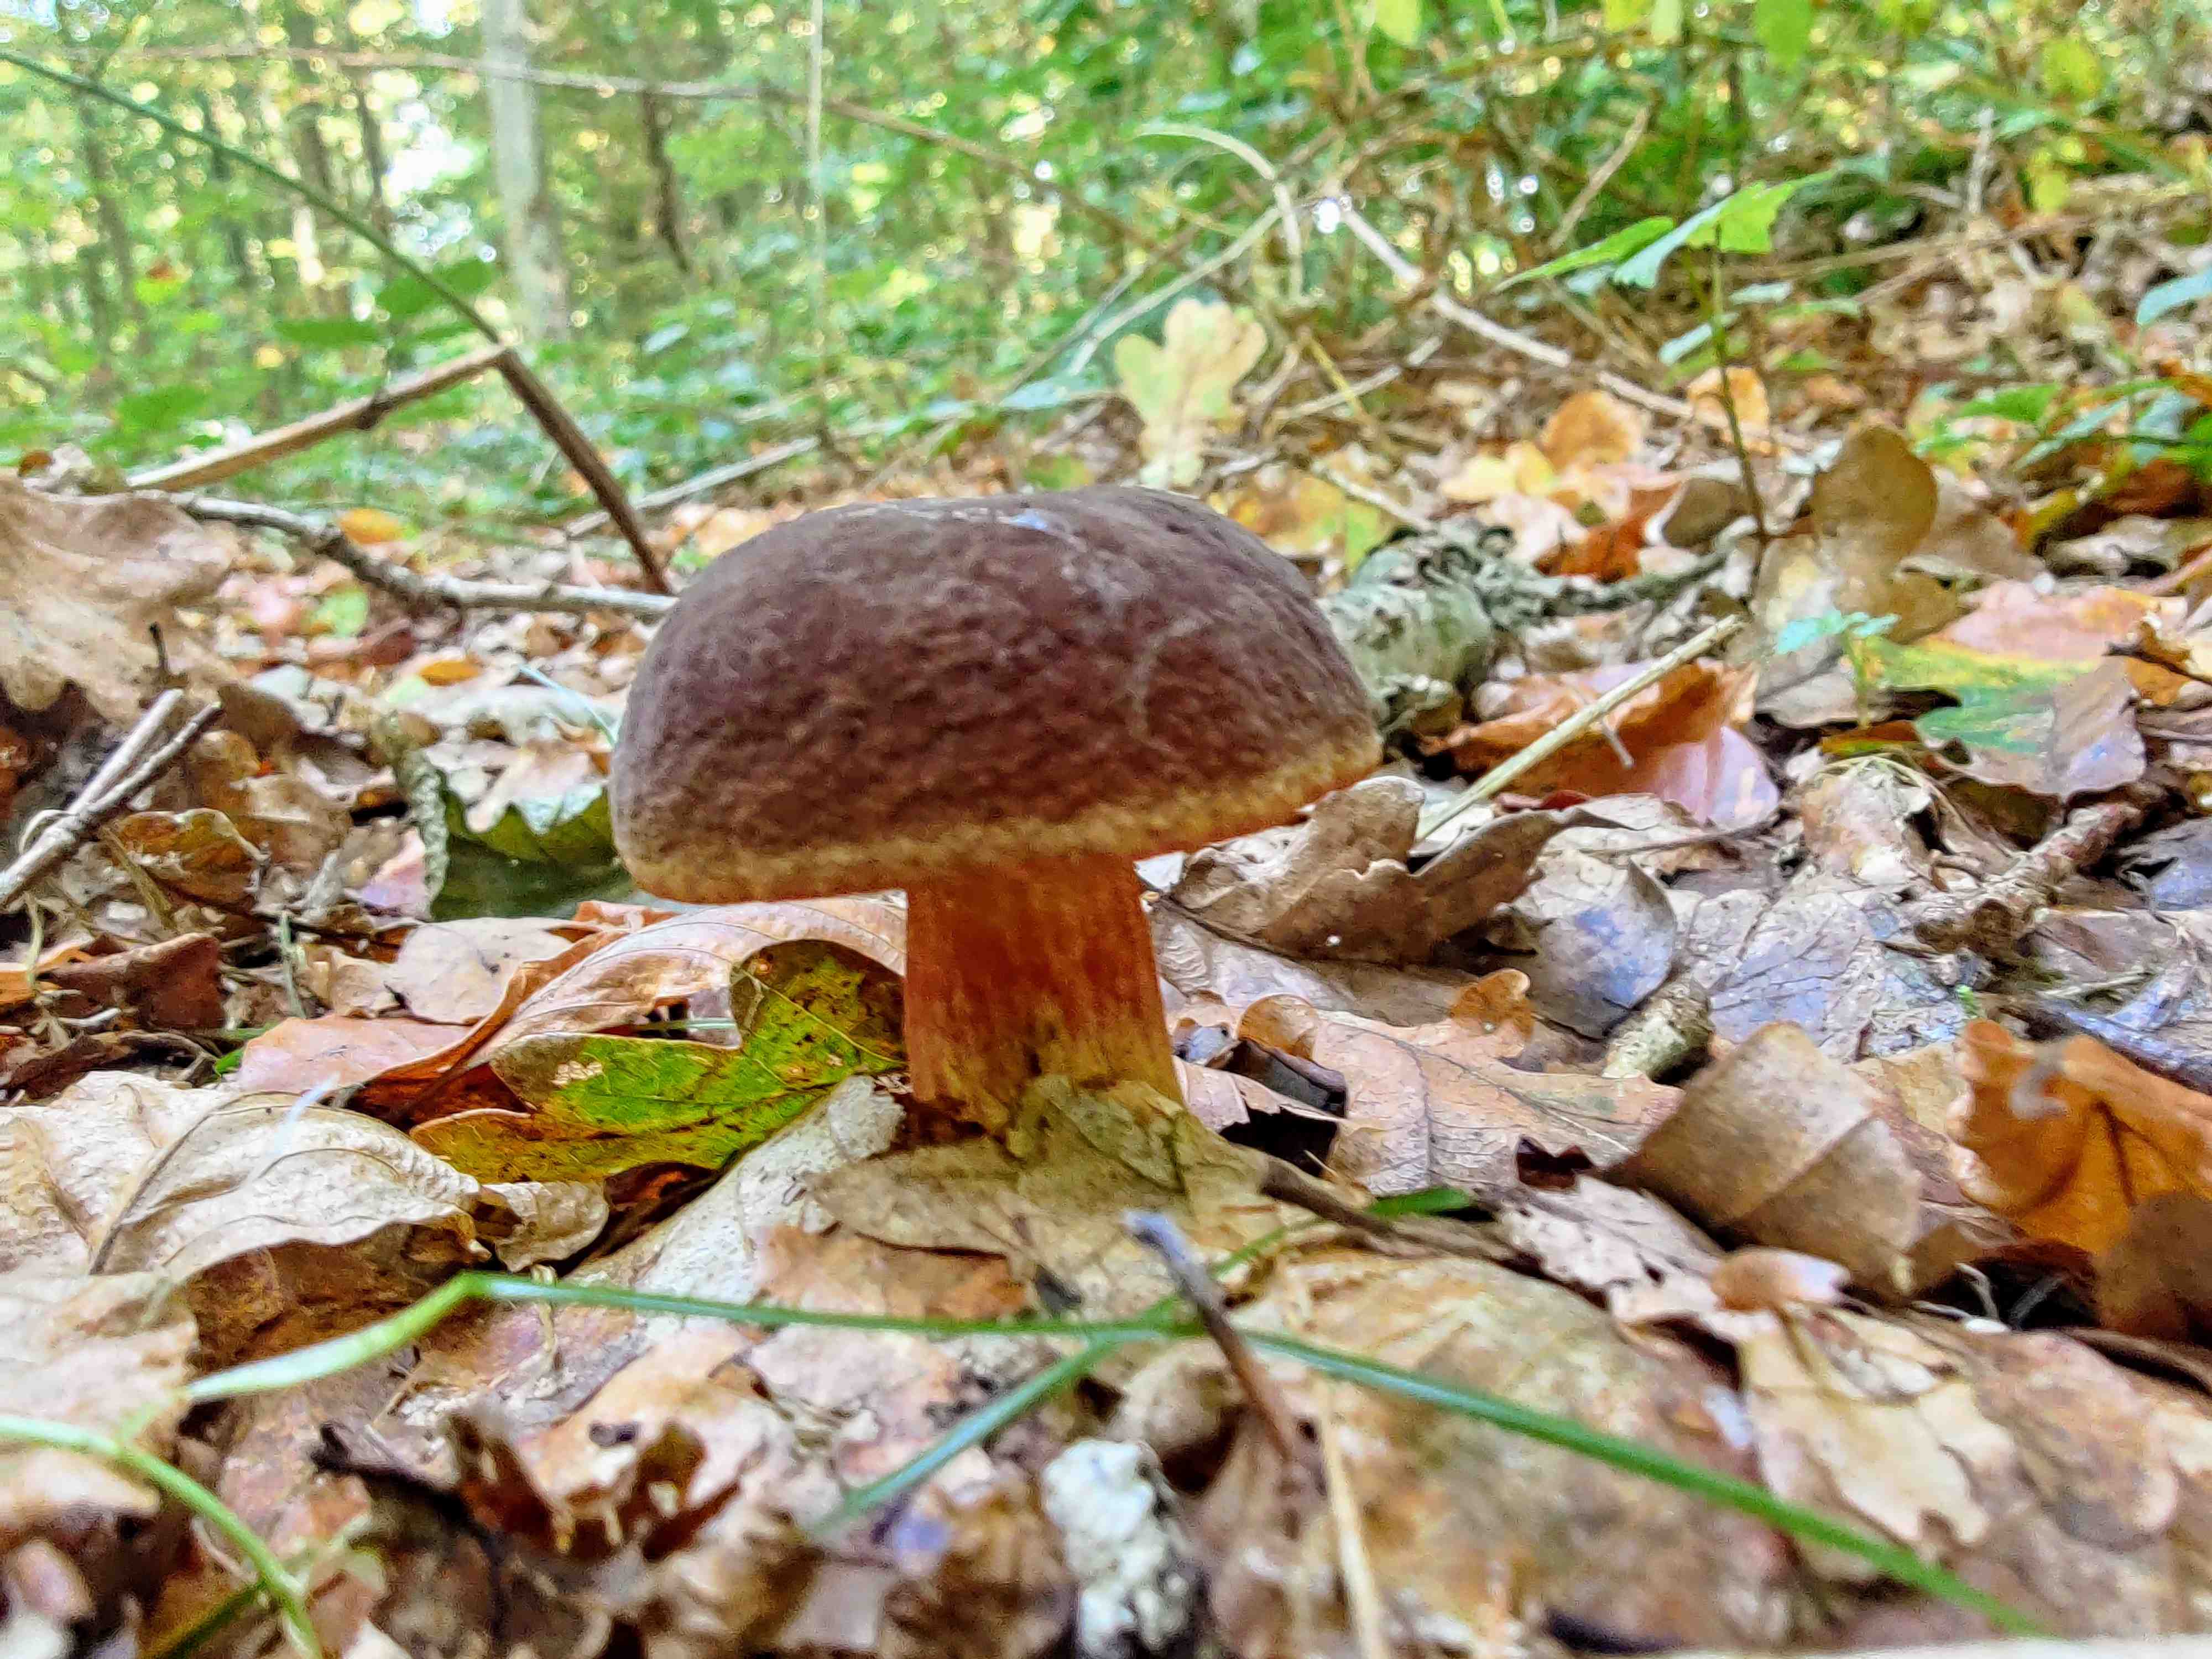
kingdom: Fungi
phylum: Basidiomycota
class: Agaricomycetes
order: Boletales
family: Boletaceae
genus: Xerocomellus
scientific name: Xerocomellus pruinatus
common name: dugget rørhat
